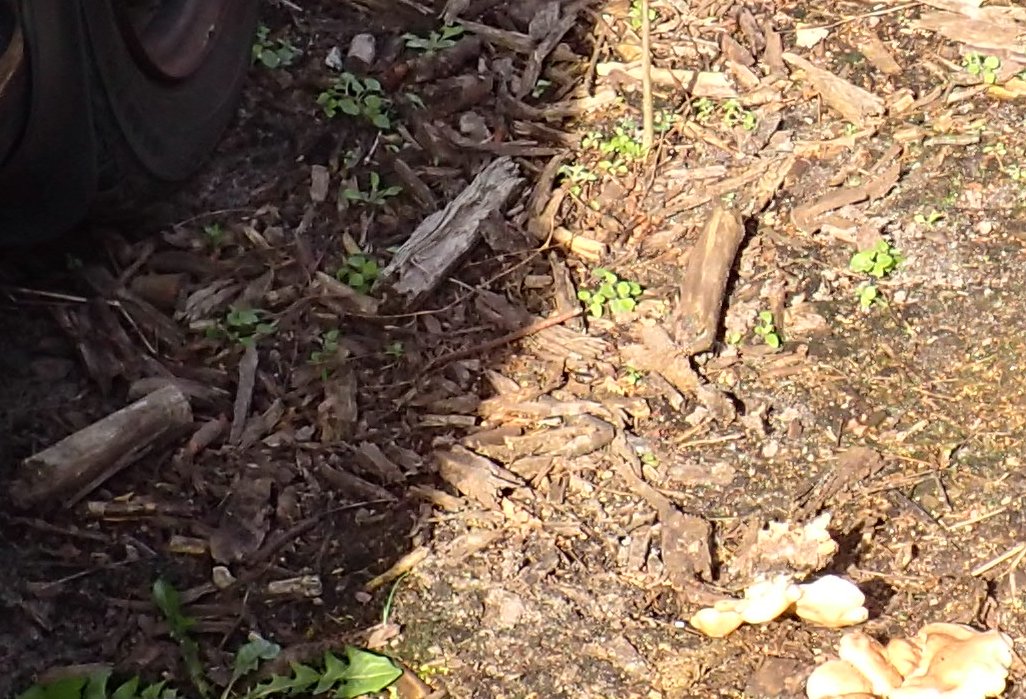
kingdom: Fungi
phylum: Basidiomycota
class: Agaricomycetes
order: Agaricales
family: Pleurotaceae
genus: Pleurotus
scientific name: Pleurotus pulmonarius
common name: sommer-østershat
